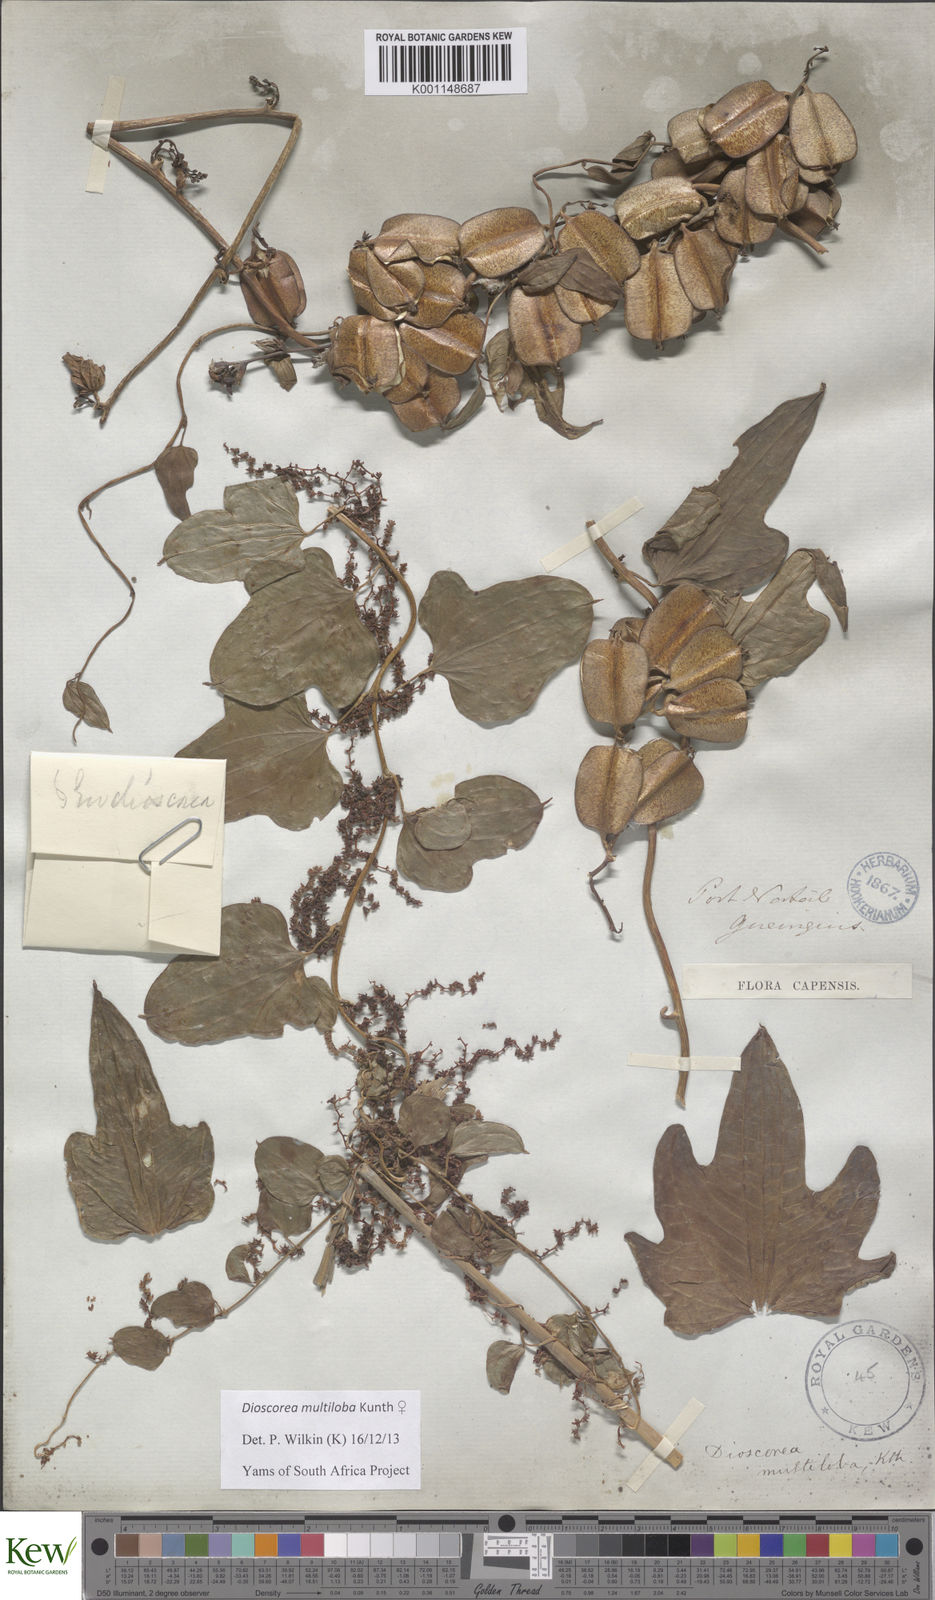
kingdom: Plantae
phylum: Tracheophyta
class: Liliopsida
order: Dioscoreales
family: Dioscoreaceae
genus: Dioscorea
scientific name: Dioscorea multiloba
